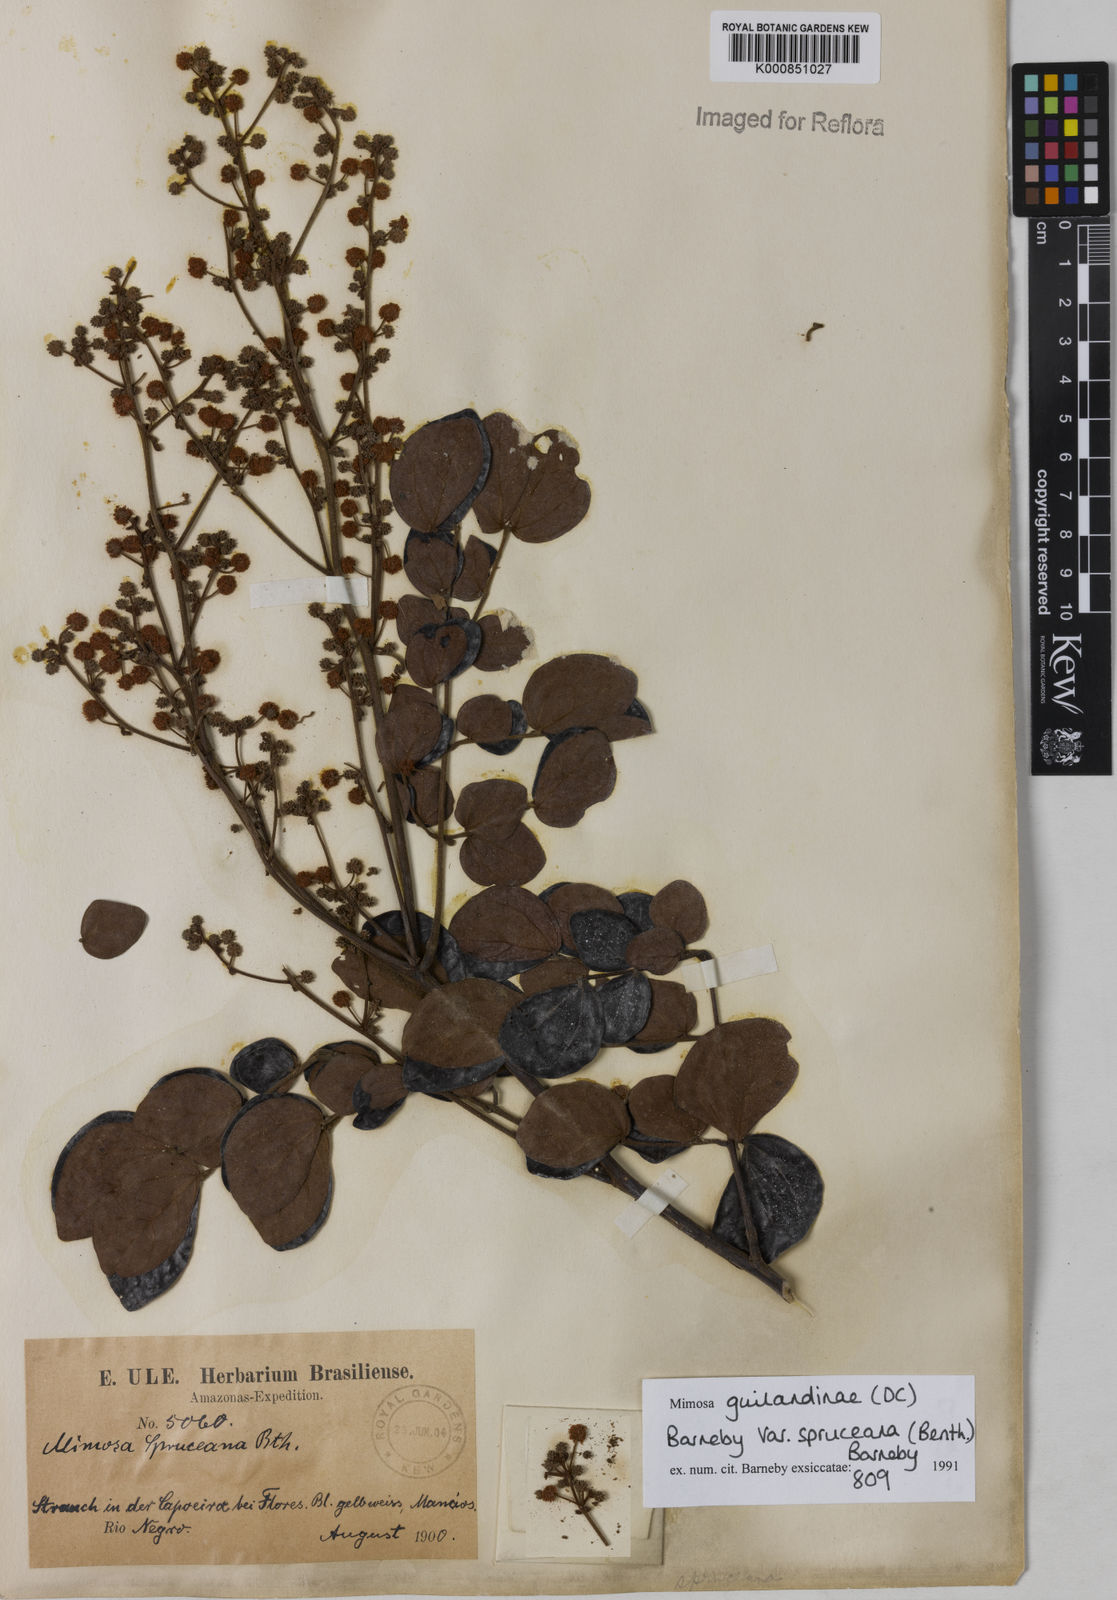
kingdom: Plantae
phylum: Tracheophyta
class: Magnoliopsida
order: Fabales
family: Fabaceae
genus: Mimosa
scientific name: Mimosa guilandinae
